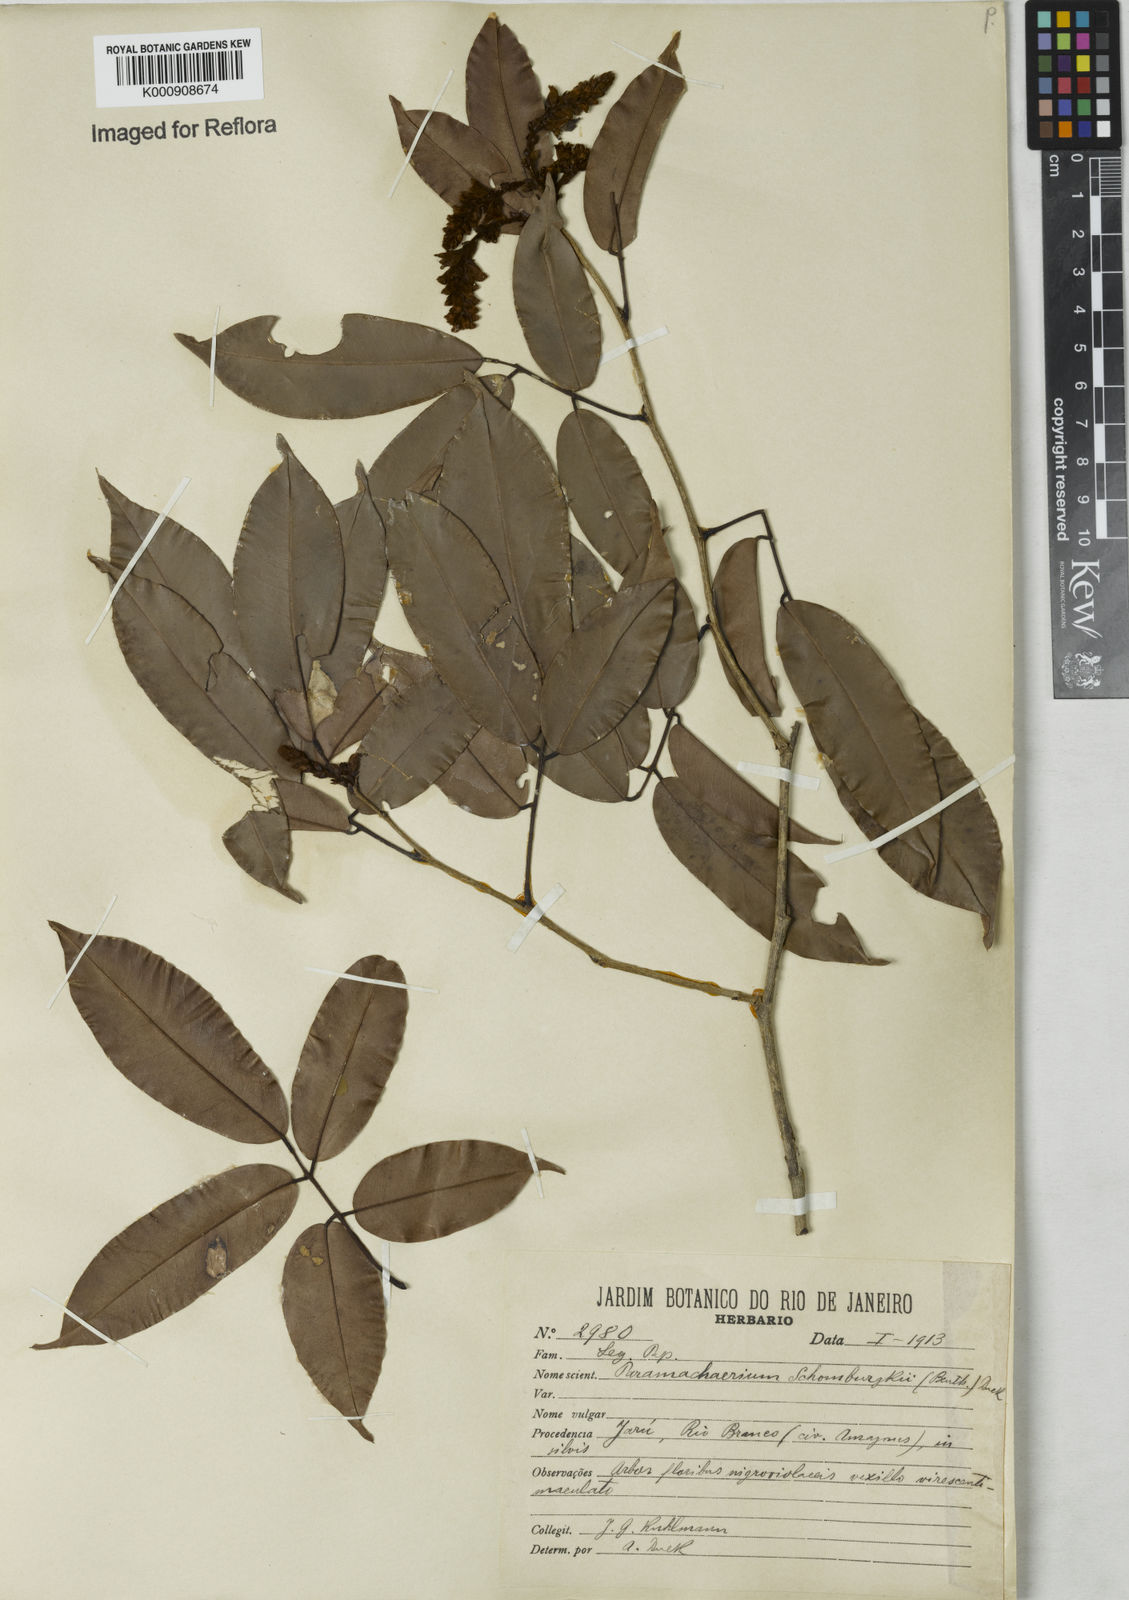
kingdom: Plantae
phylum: Tracheophyta
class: Magnoliopsida
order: Fabales
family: Fabaceae
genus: Paramachaerium
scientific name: Paramachaerium schomburgkii
